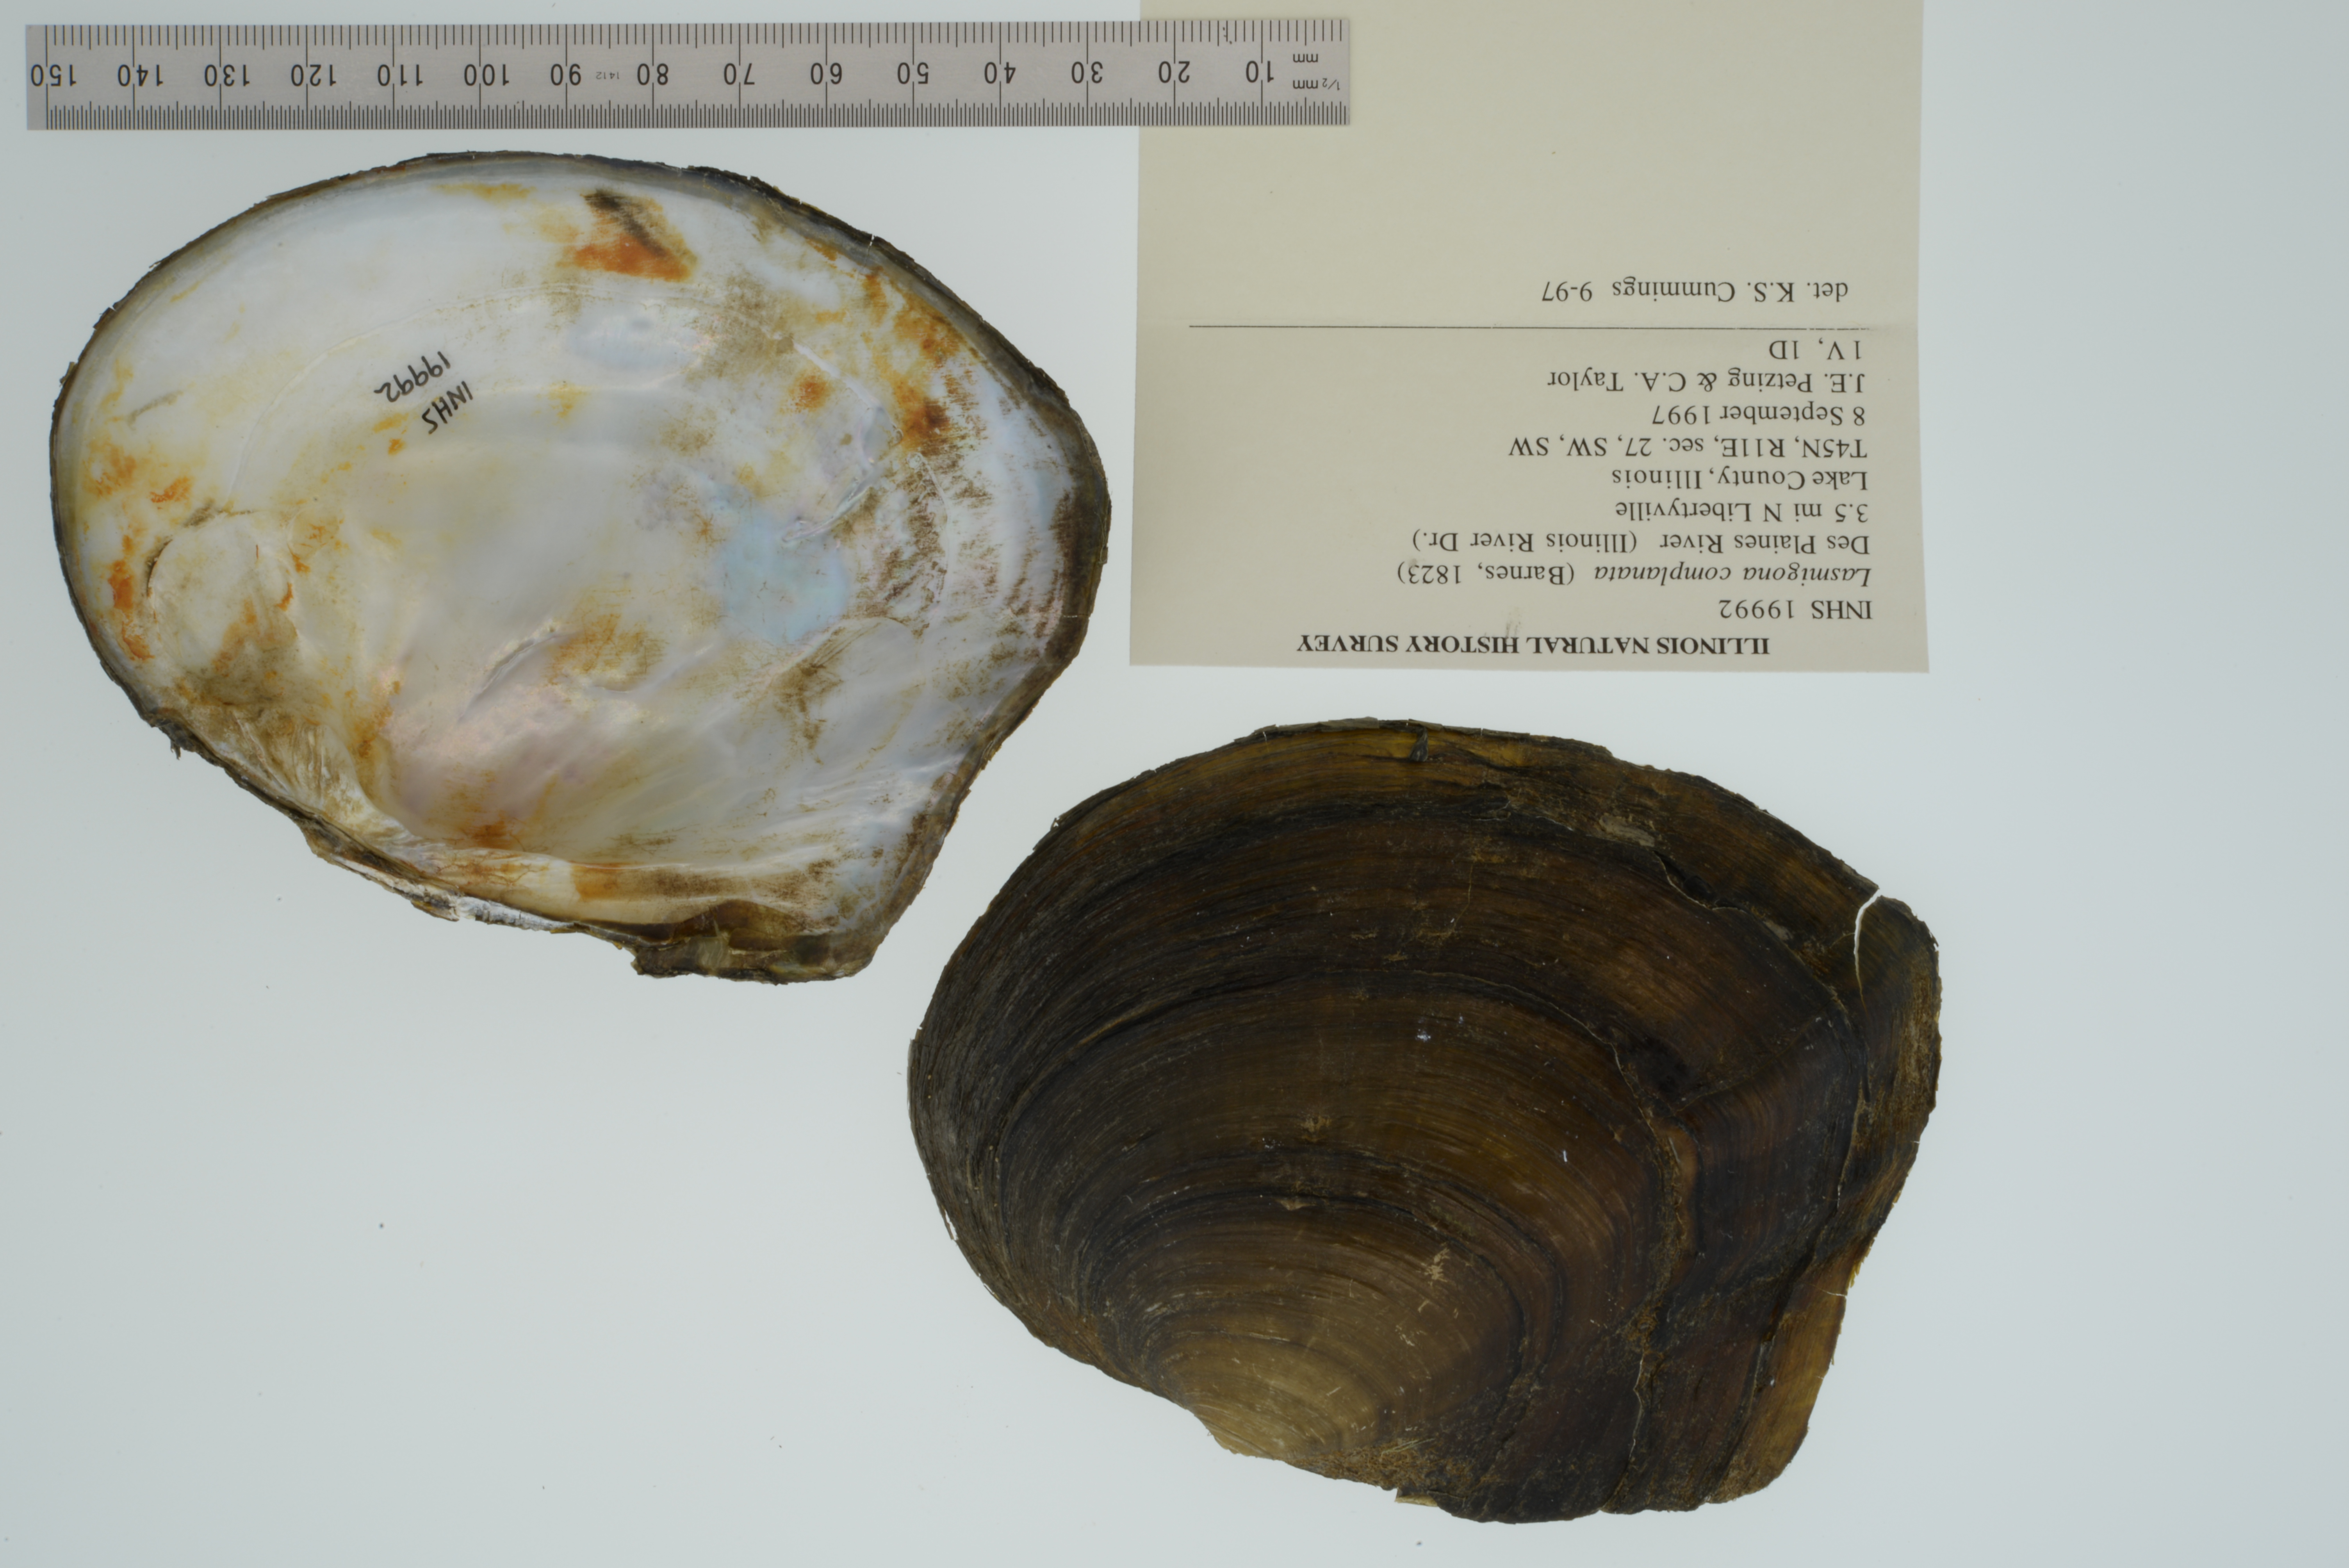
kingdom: Animalia
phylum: Mollusca
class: Bivalvia
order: Unionida
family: Unionidae
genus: Lasmigona
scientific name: Lasmigona complanata
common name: White heelsplitter
